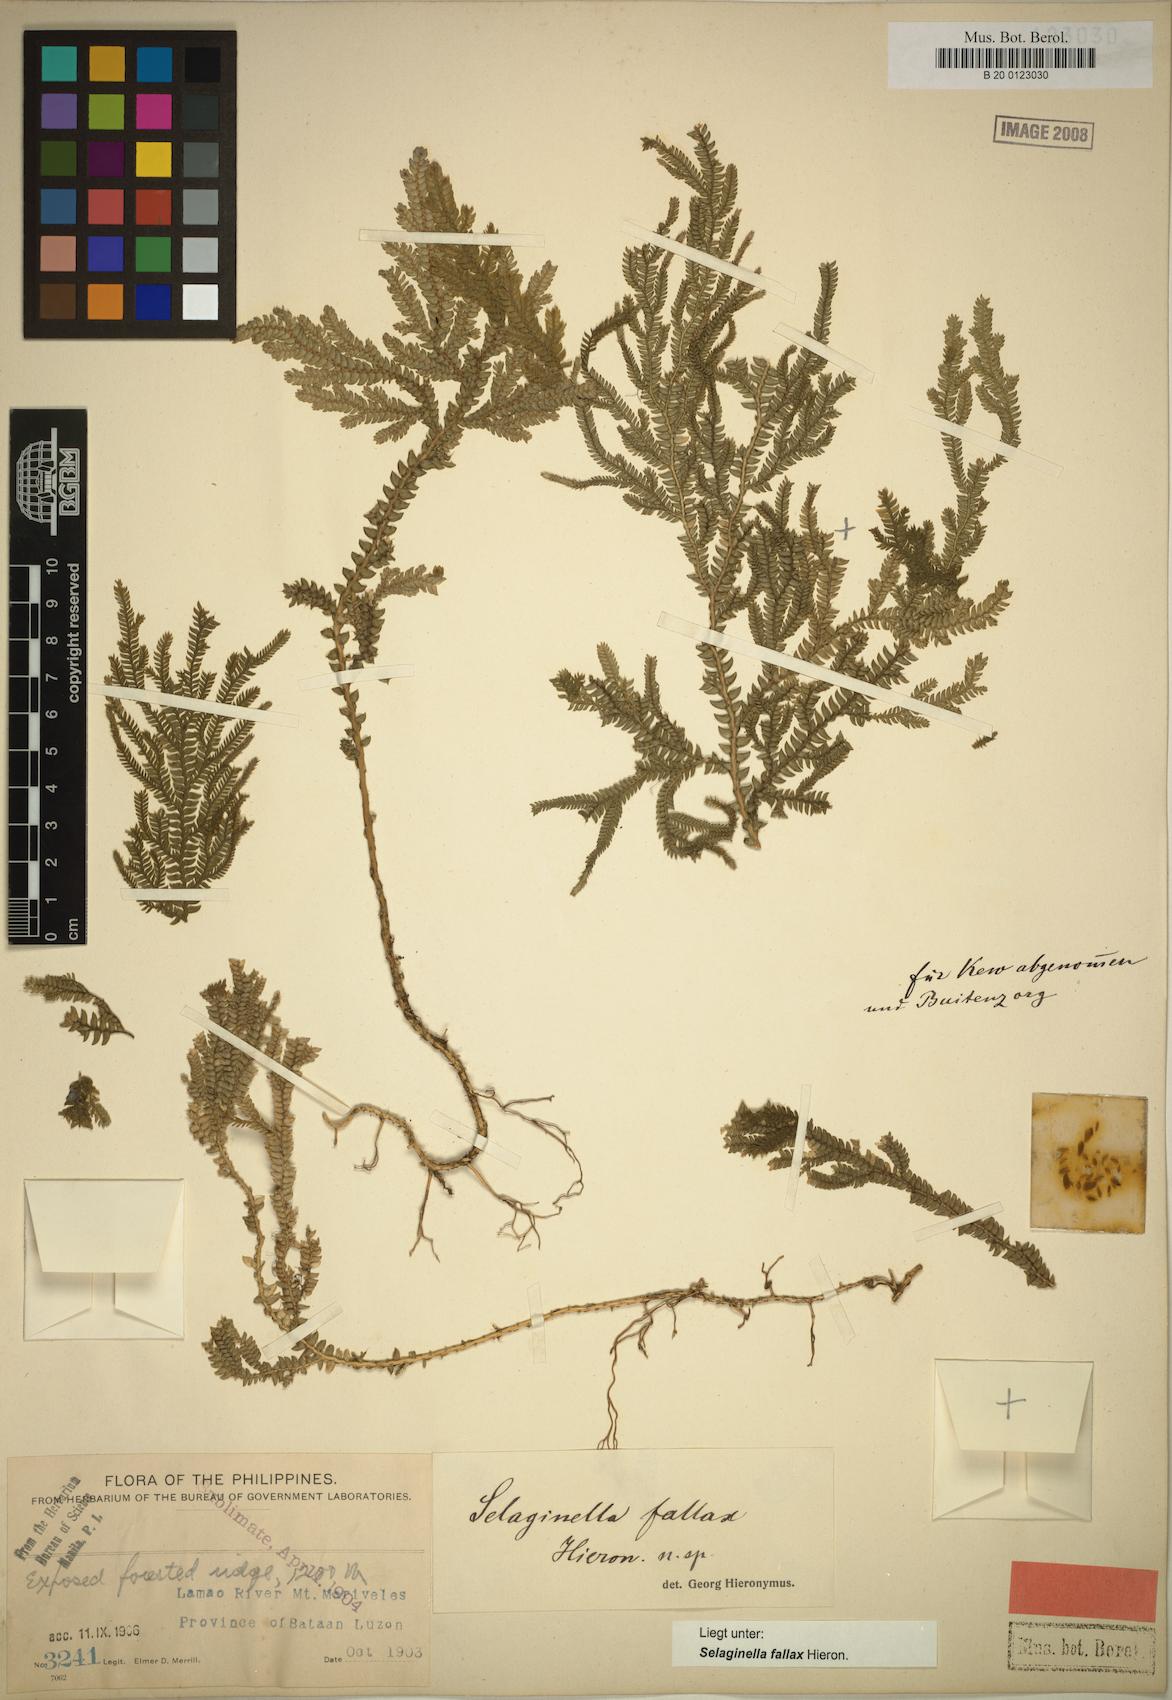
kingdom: Plantae
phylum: Tracheophyta
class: Lycopodiopsida
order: Selaginellales
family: Selaginellaceae
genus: Selaginella
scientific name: Selaginella jagorii
